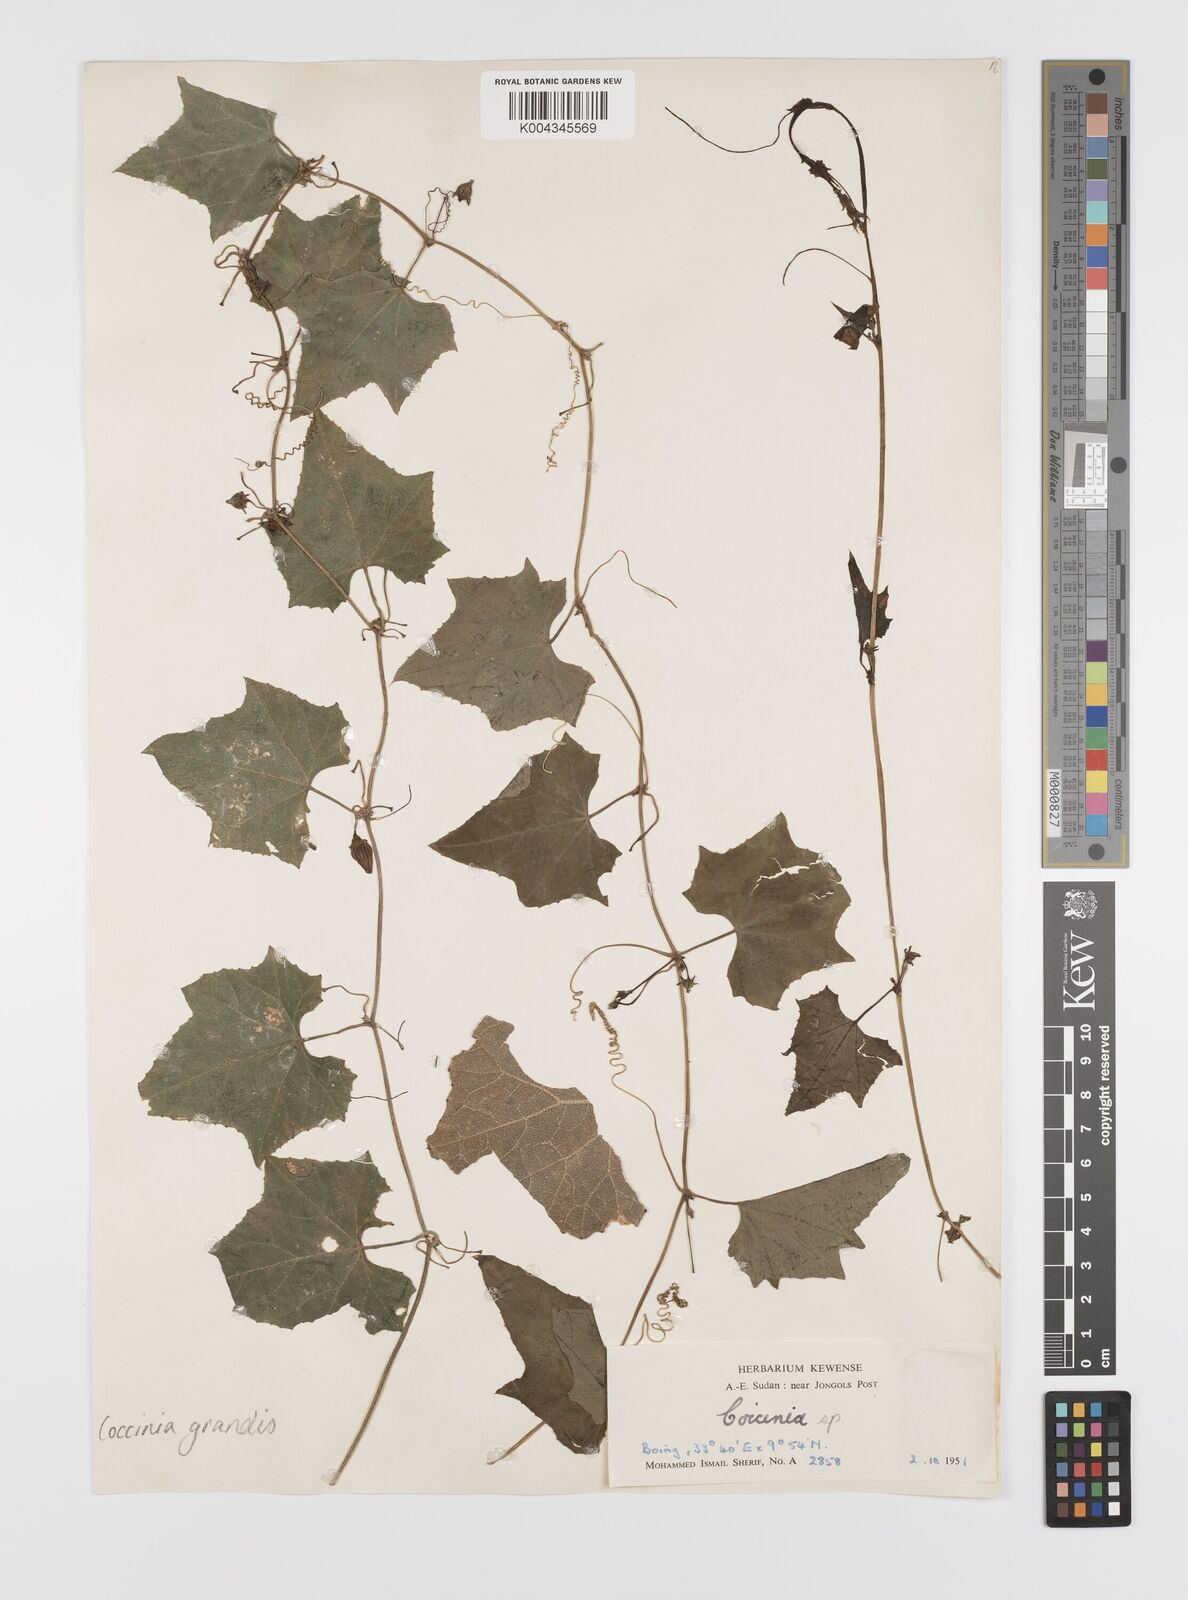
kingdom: Plantae
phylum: Tracheophyta
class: Magnoliopsida
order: Cucurbitales
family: Cucurbitaceae
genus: Coccinia
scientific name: Coccinia grandis
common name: Ivy gourd
